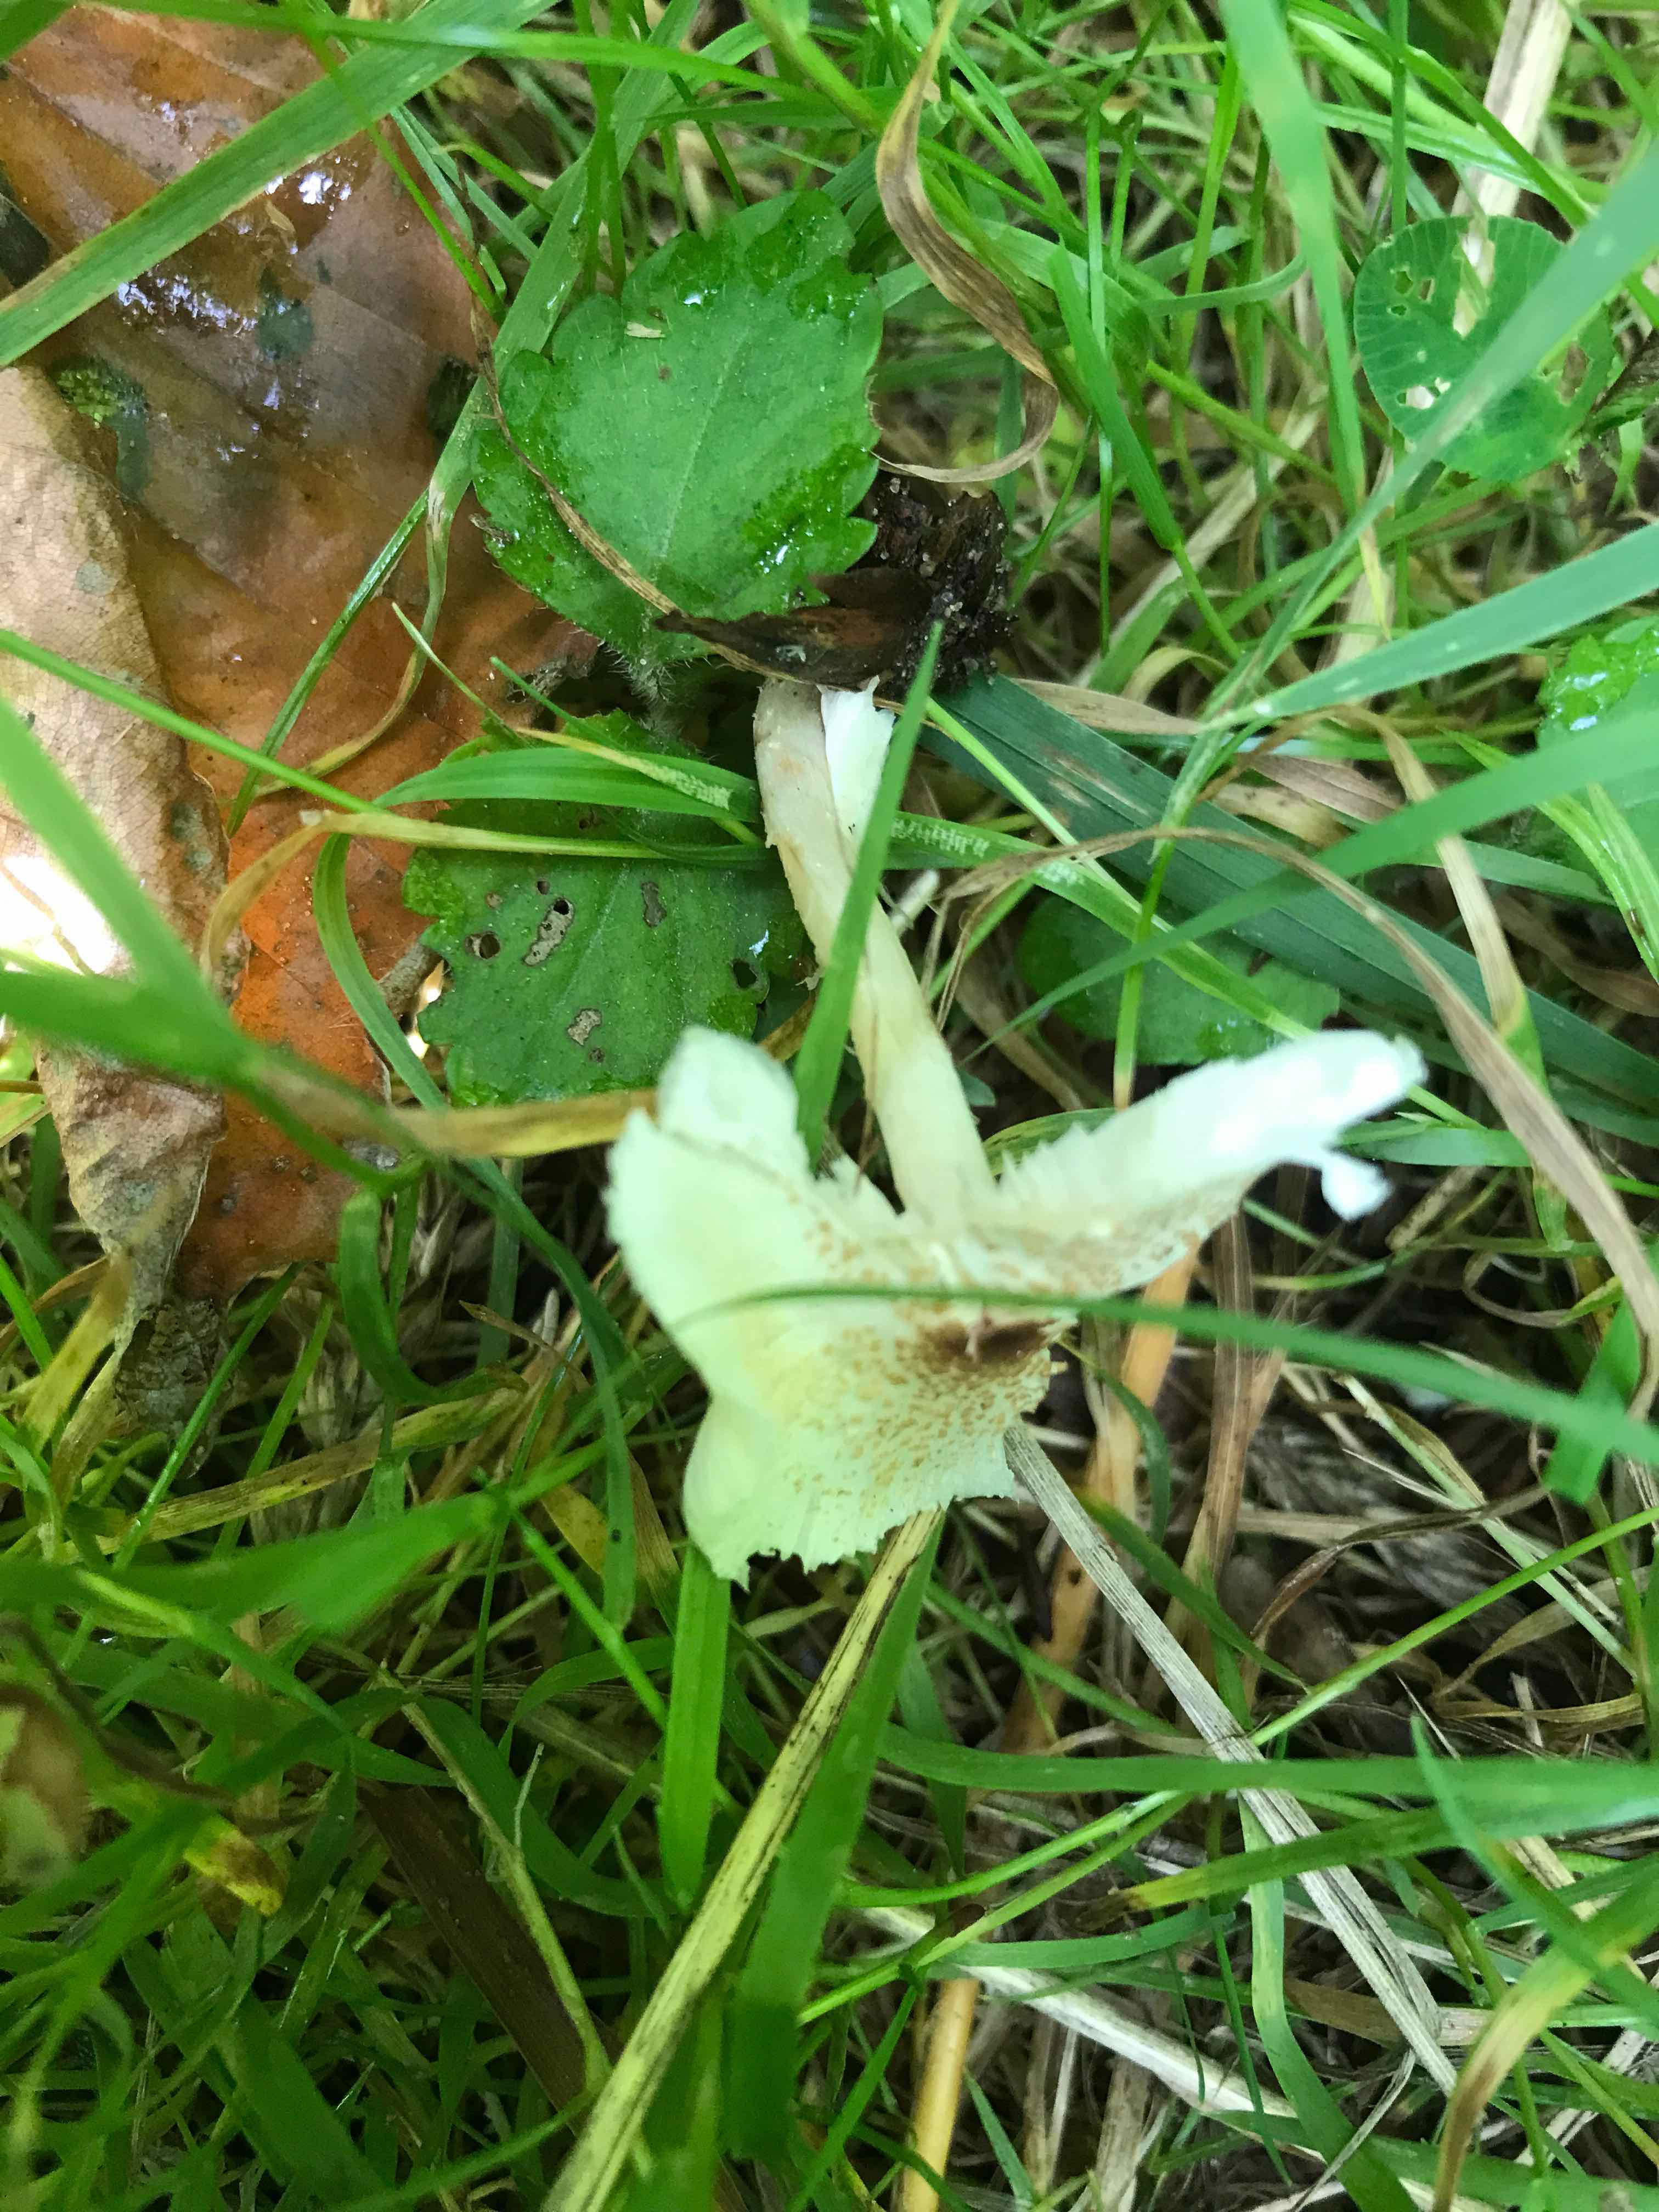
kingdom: Fungi
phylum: Basidiomycota
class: Agaricomycetes
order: Agaricales
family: Agaricaceae
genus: Lepiota
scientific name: Lepiota cristata
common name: stinkende parasolhat
